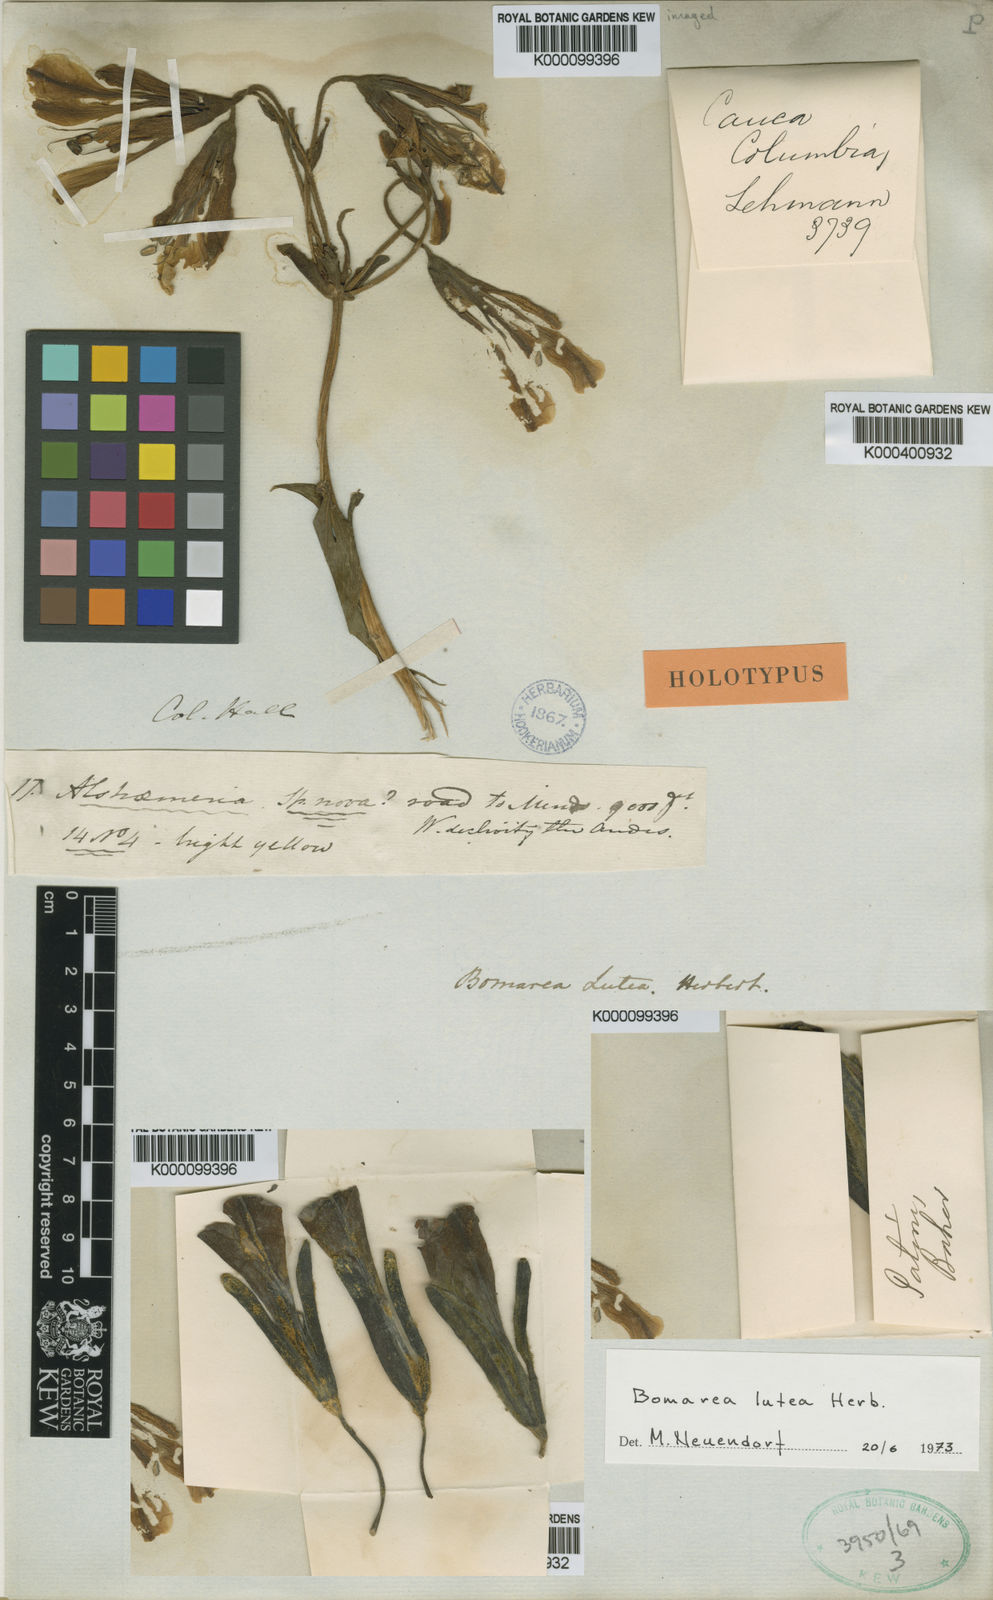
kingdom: Plantae
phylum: Tracheophyta
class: Liliopsida
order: Liliales
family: Alstroemeriaceae
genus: Bomarea
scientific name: Bomarea lutea
